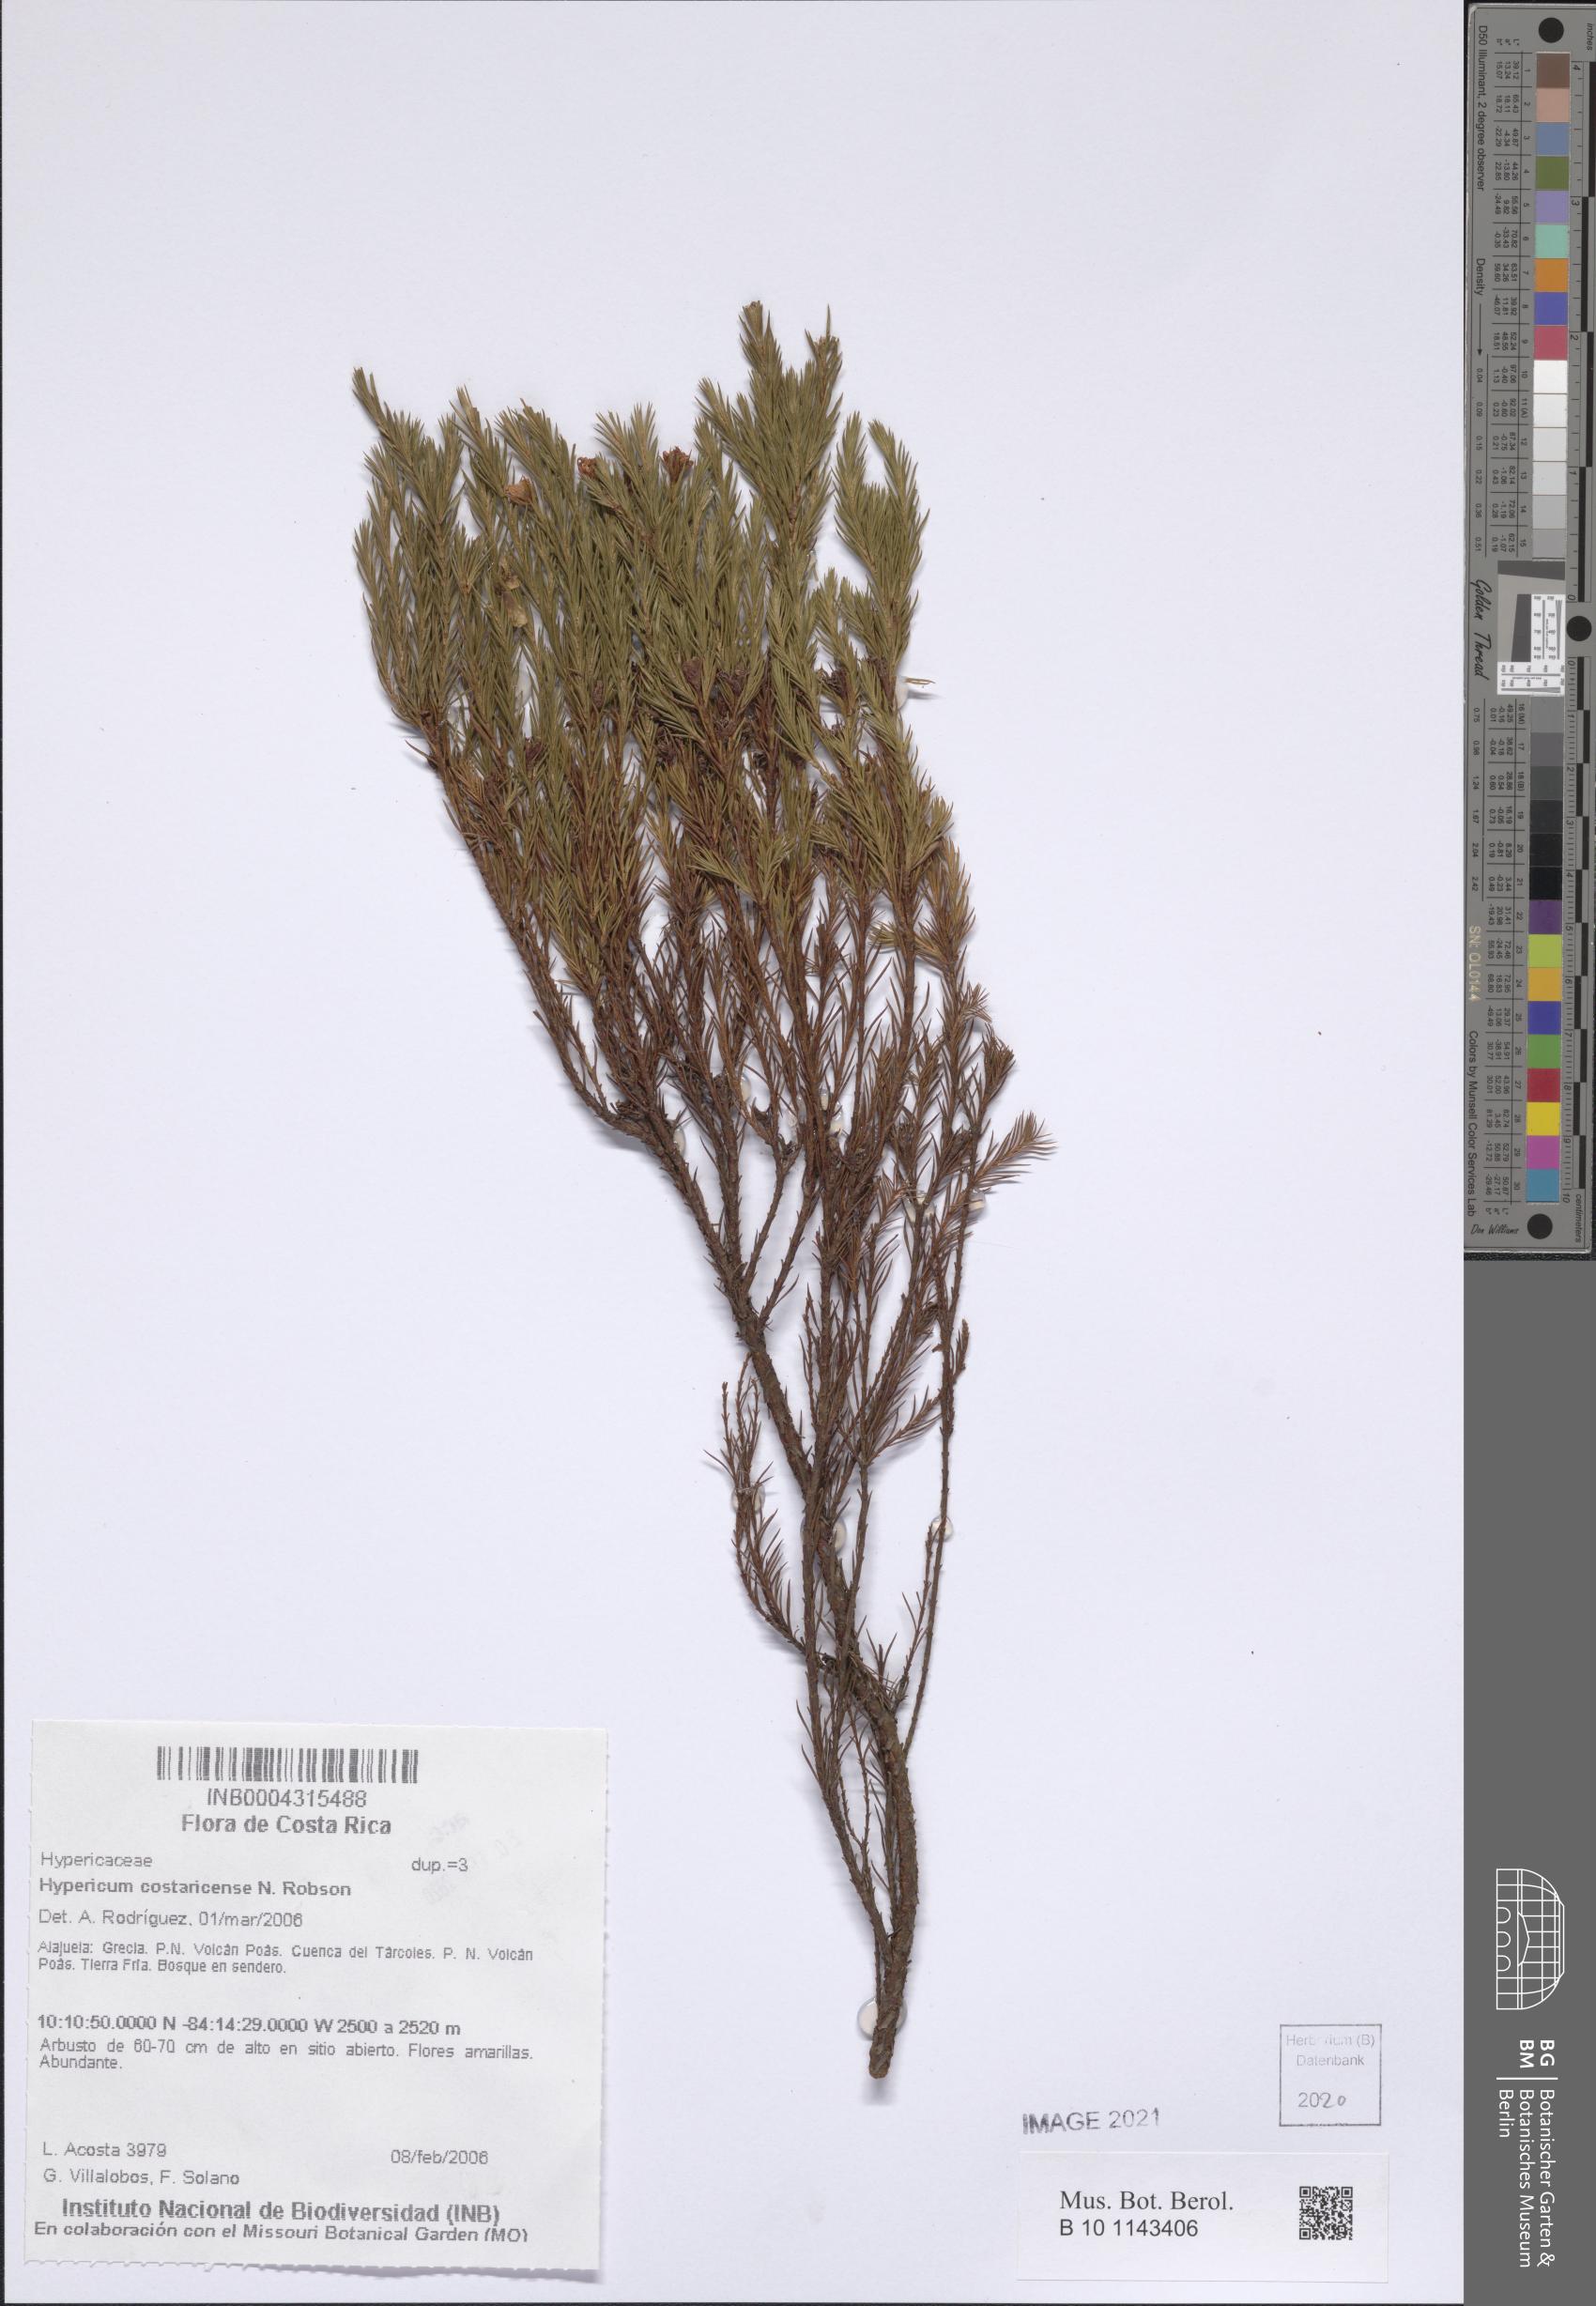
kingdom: Plantae
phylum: Tracheophyta
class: Magnoliopsida
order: Malpighiales
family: Hypericaceae
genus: Hypericum
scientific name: Hypericum costaricense
